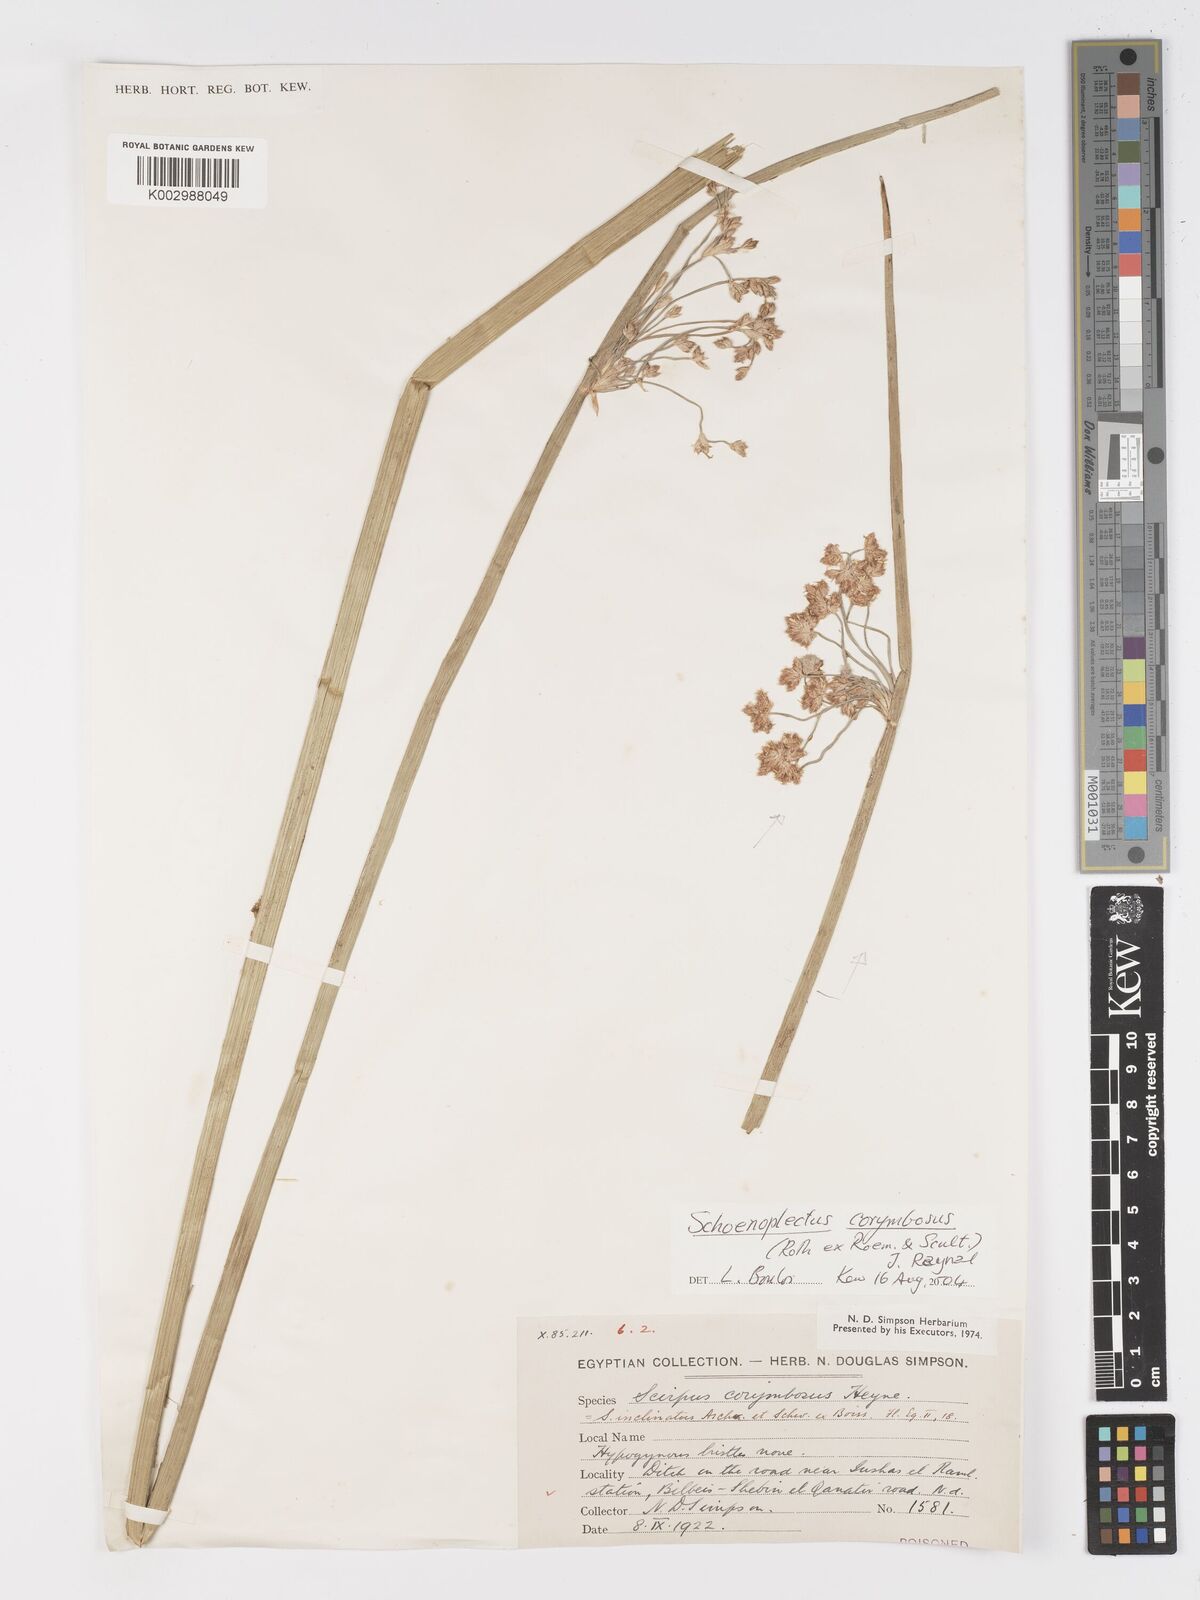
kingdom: Plantae
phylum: Tracheophyta
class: Liliopsida
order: Poales
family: Cyperaceae
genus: Schoenoplectiella
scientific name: Schoenoplectiella corymbosa
